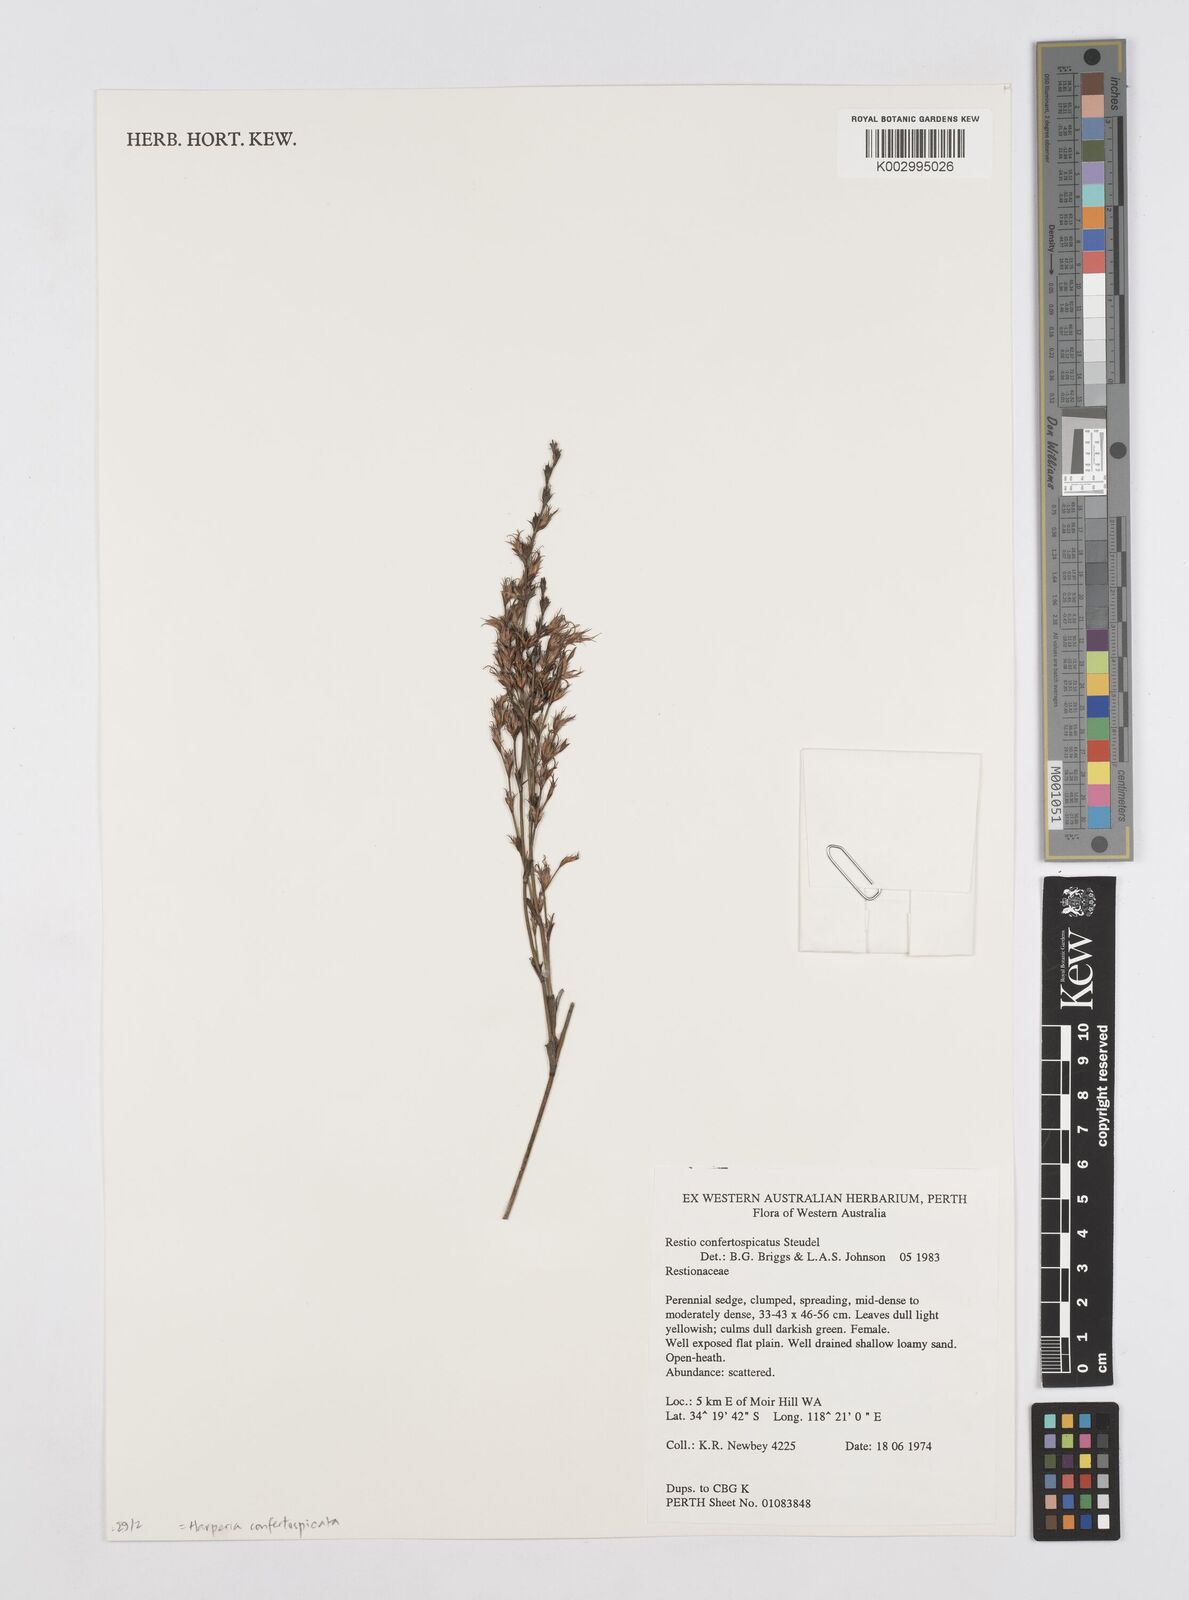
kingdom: Plantae
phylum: Tracheophyta
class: Liliopsida
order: Poales
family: Restionaceae
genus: Desmocladus
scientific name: Desmocladus confertospicatus
